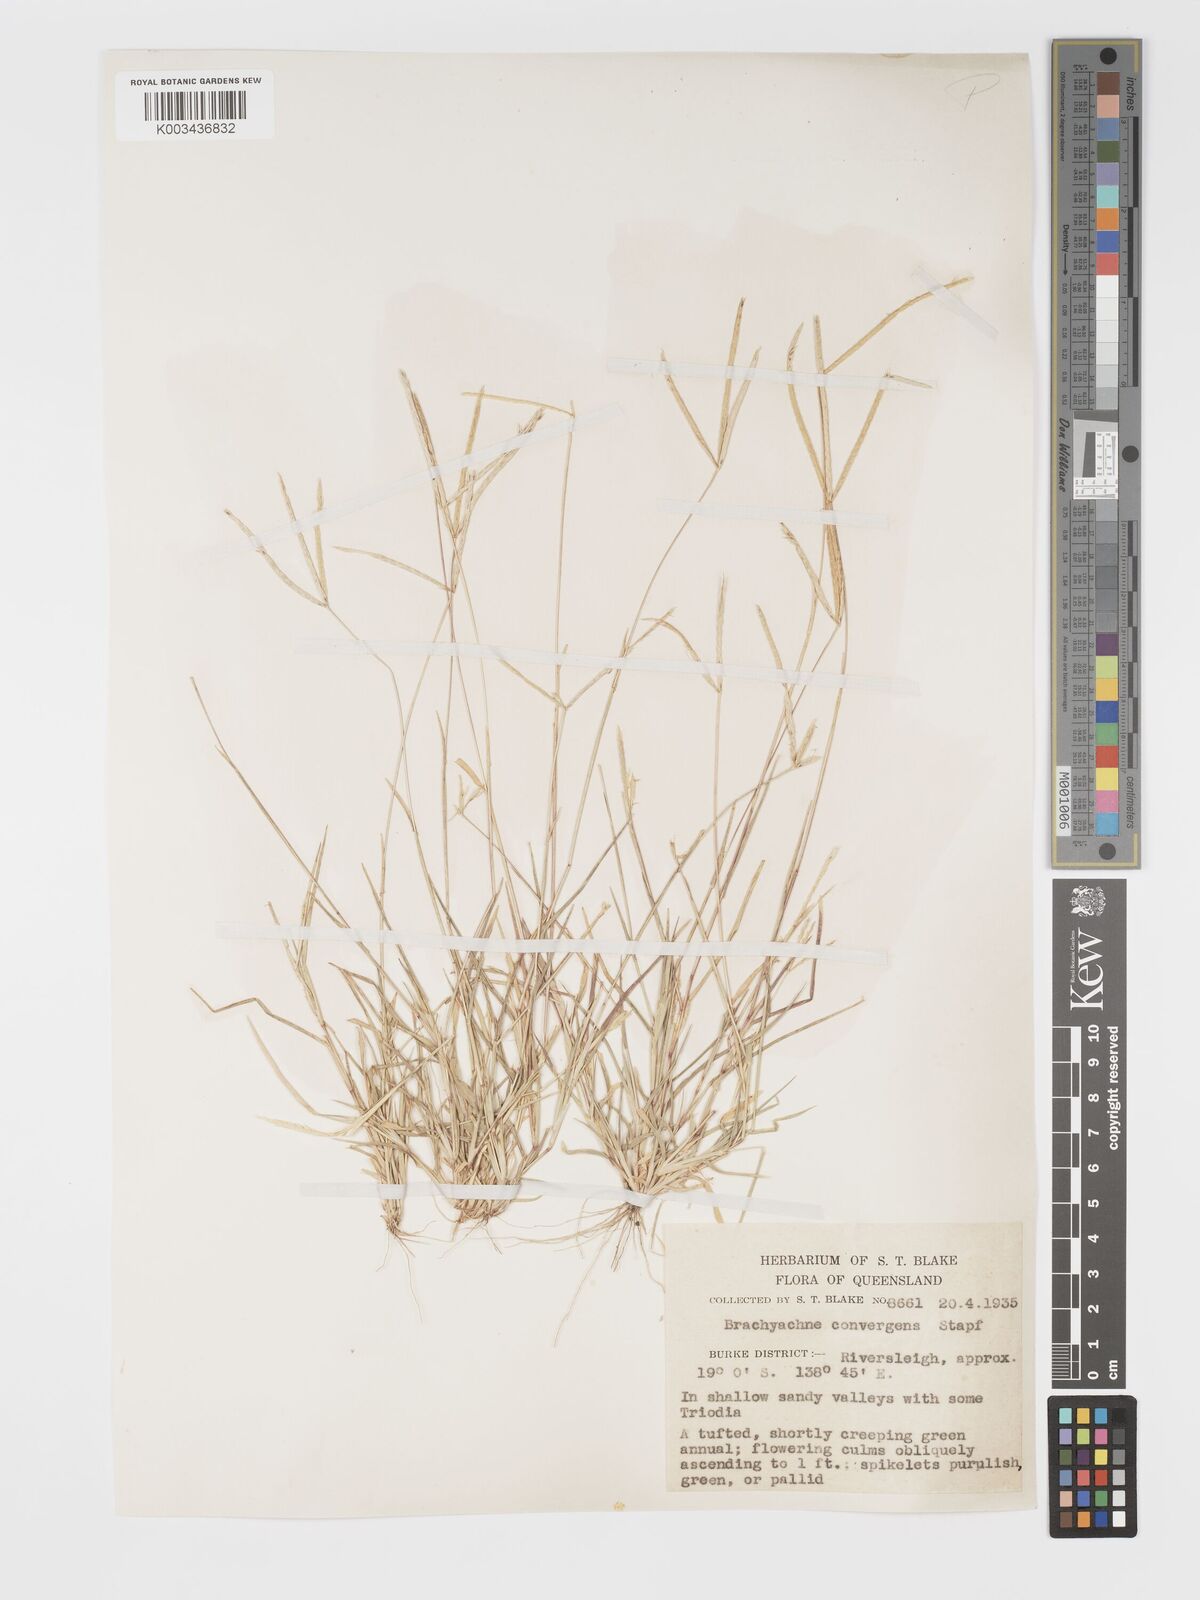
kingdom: Plantae
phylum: Tracheophyta
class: Liliopsida
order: Poales
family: Poaceae
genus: Cynodon
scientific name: Cynodon convergens
